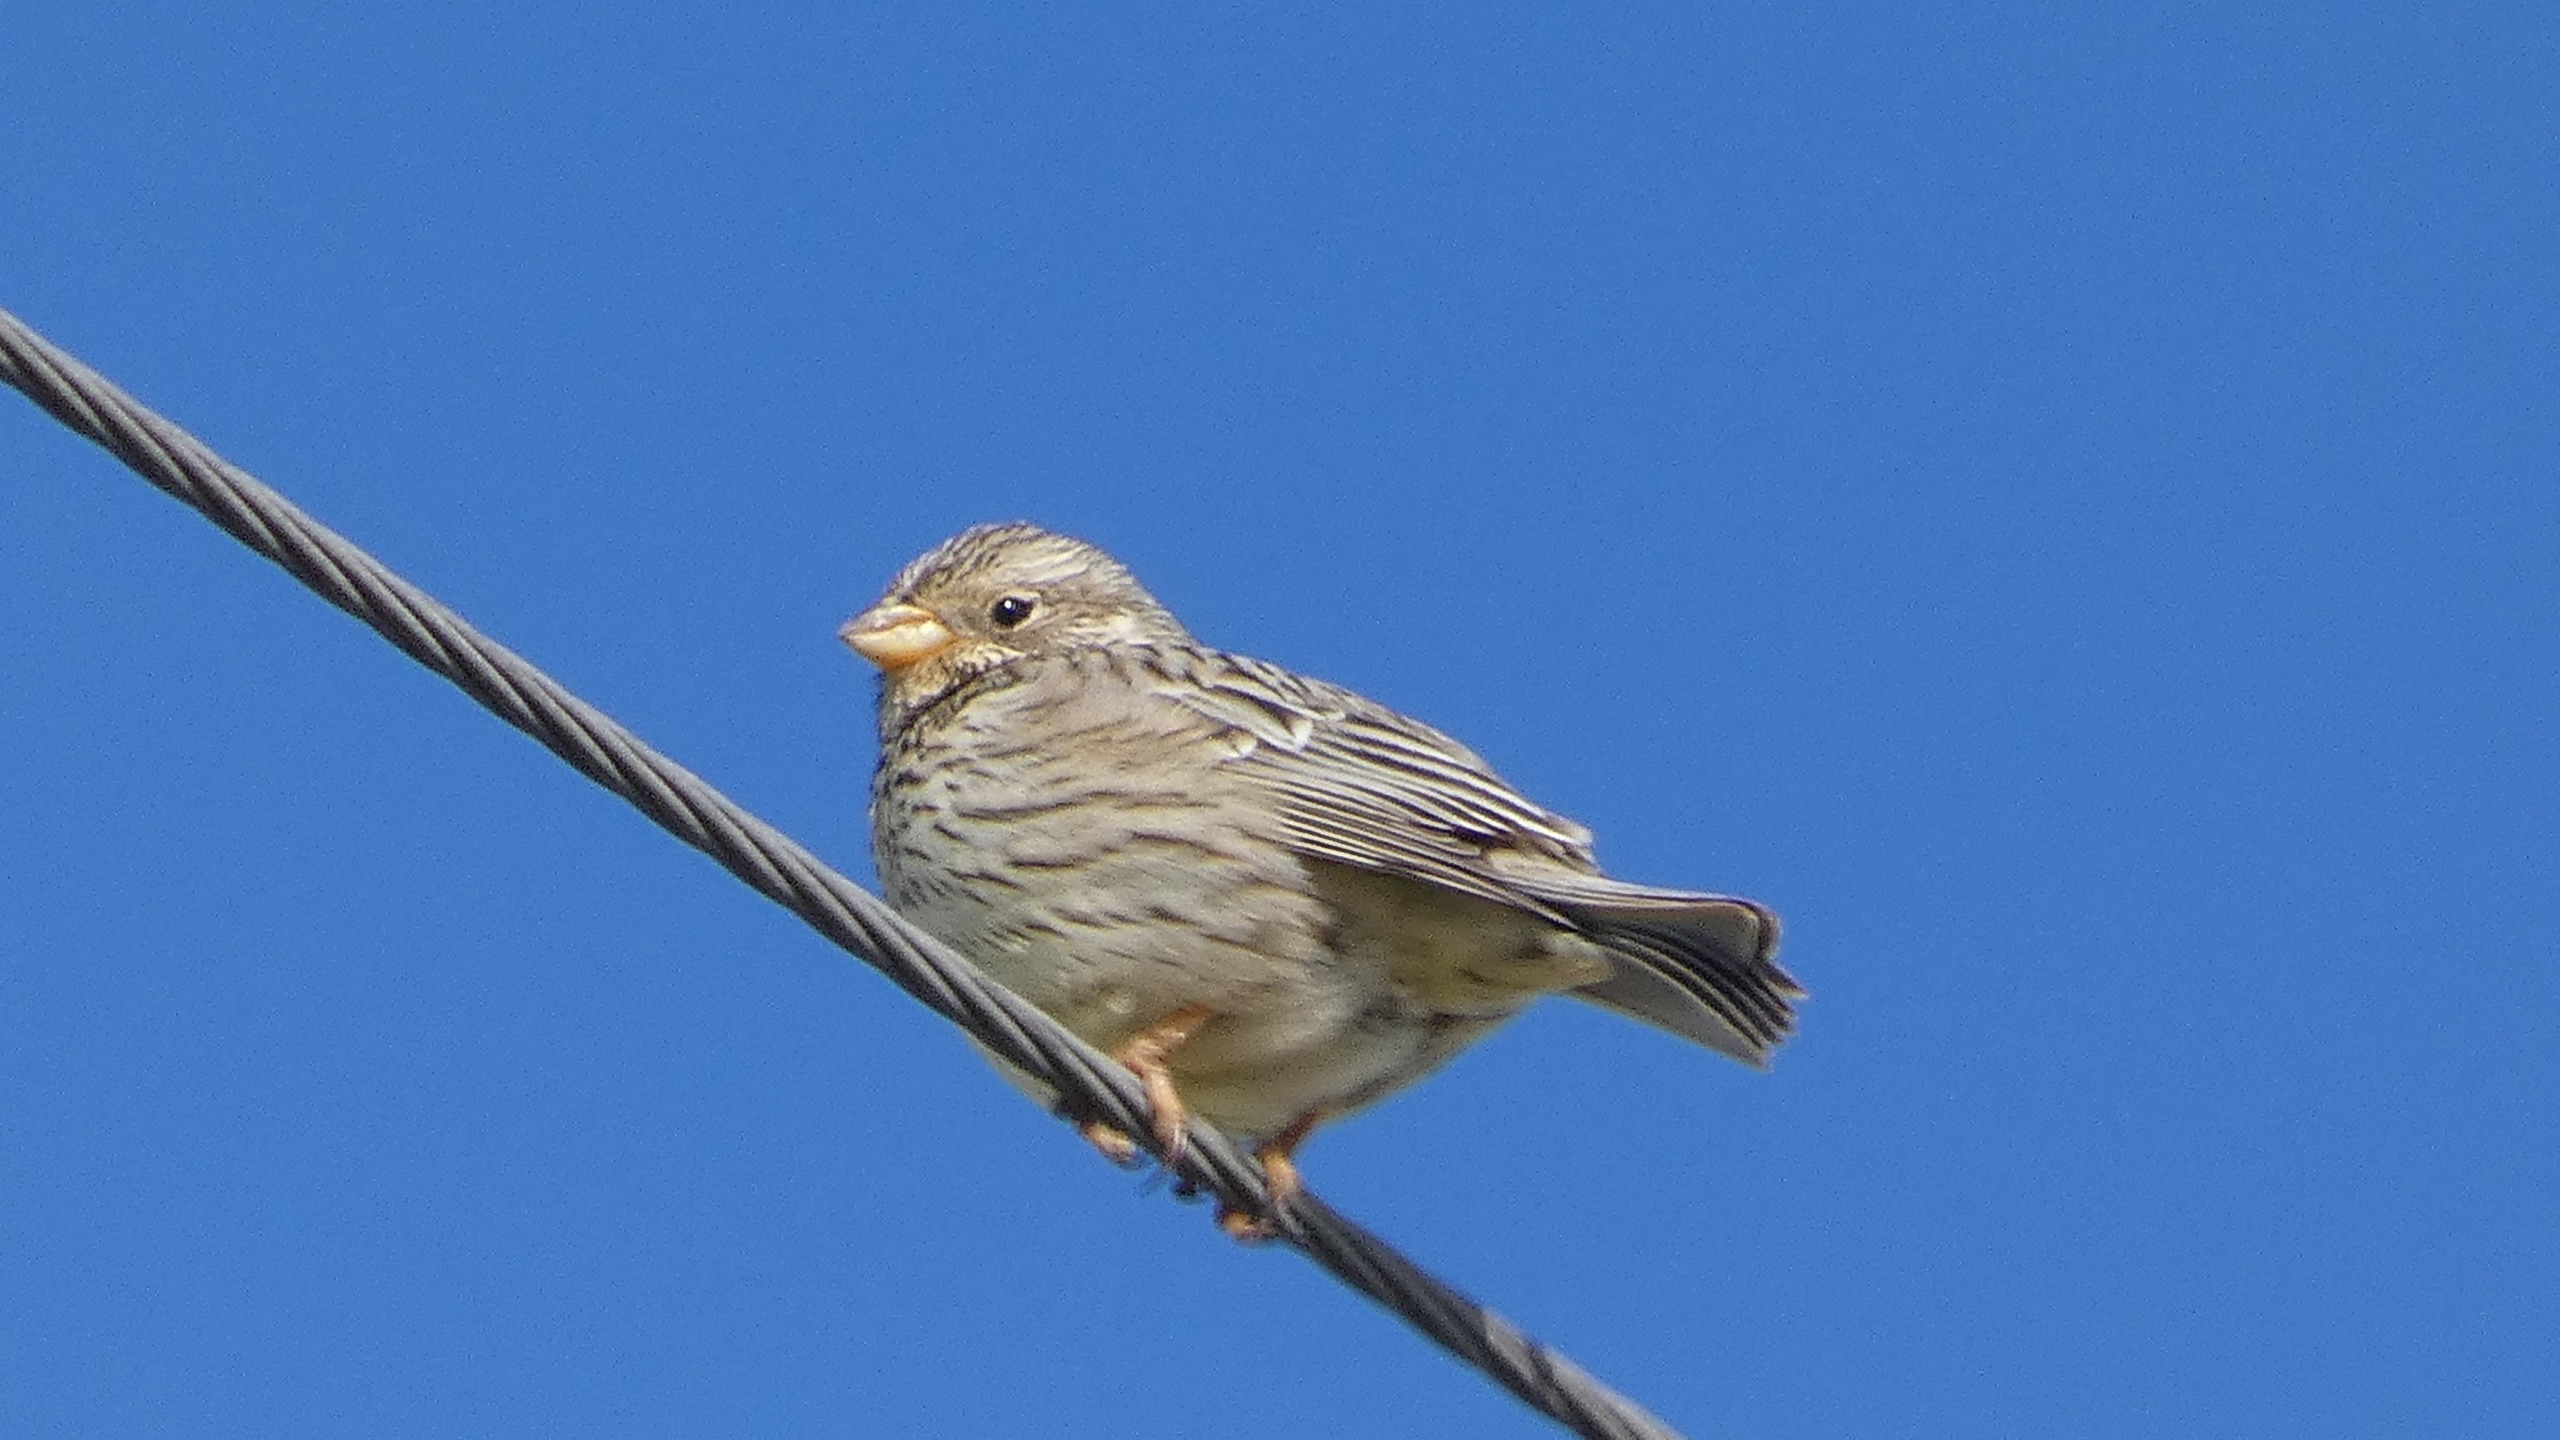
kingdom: Animalia
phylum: Chordata
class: Aves
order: Passeriformes
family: Emberizidae
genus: Emberiza
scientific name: Emberiza calandra
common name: Bomlærke
